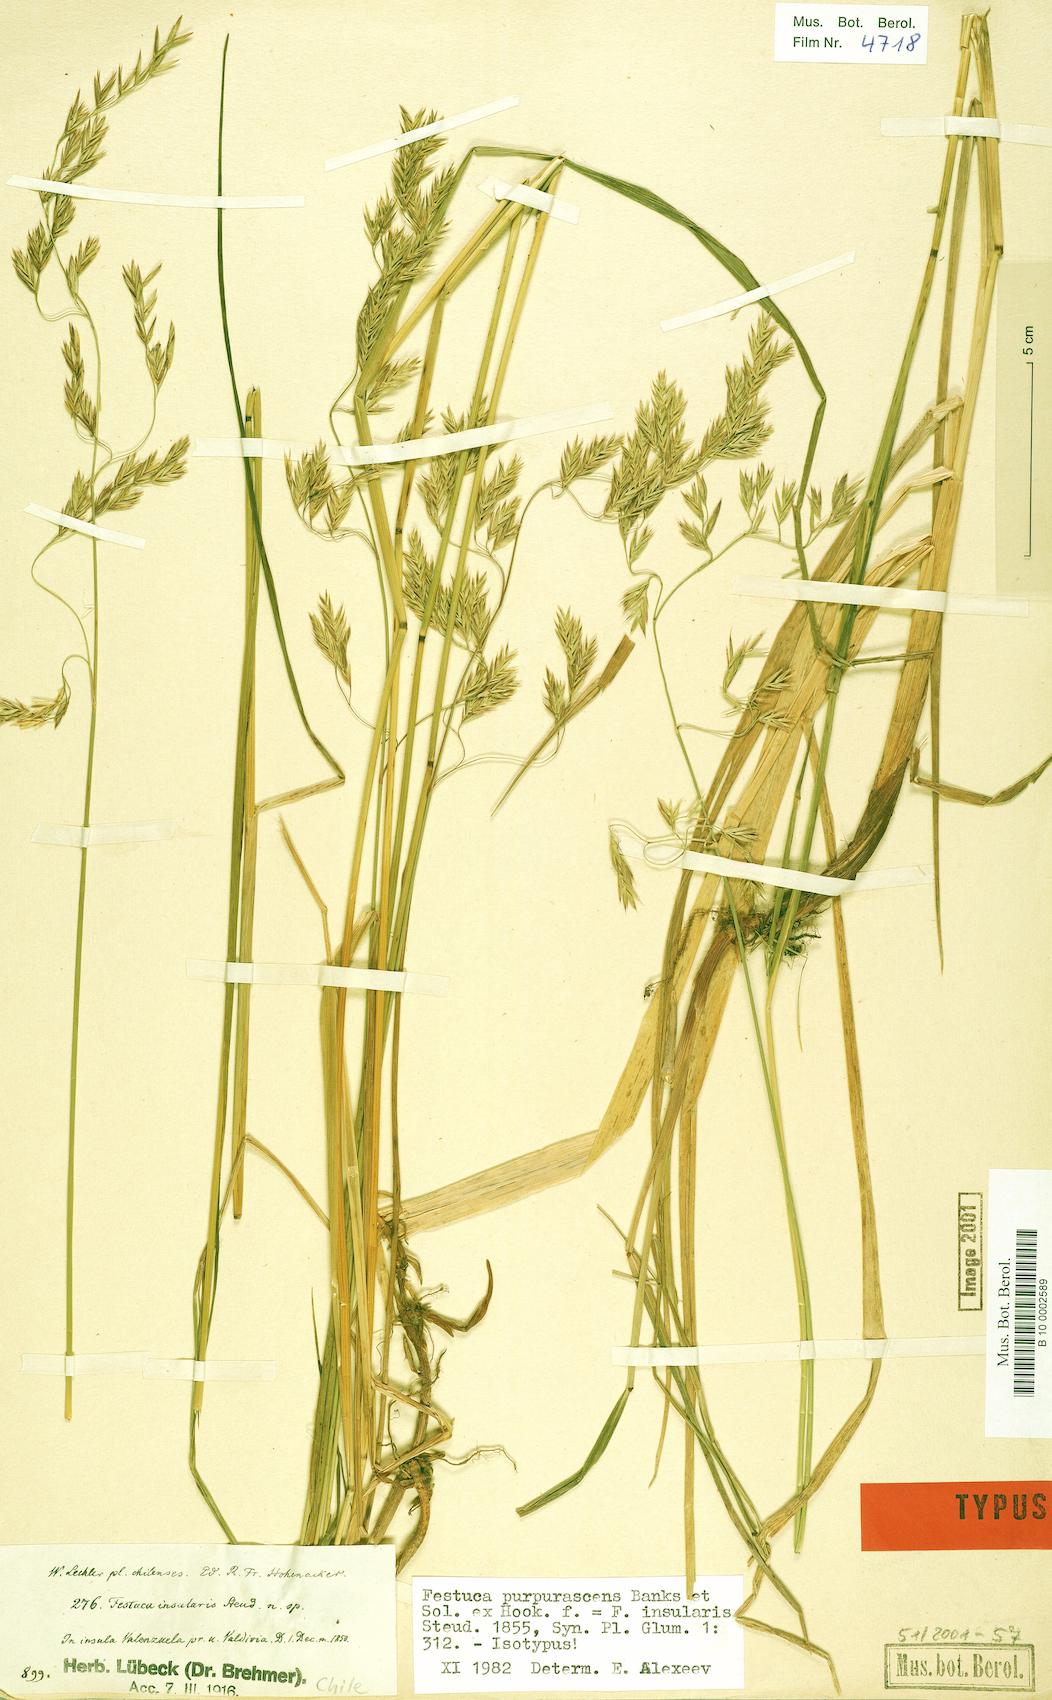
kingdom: Plantae
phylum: Tracheophyta
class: Liliopsida
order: Poales
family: Poaceae
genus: Festuca
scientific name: Festuca
